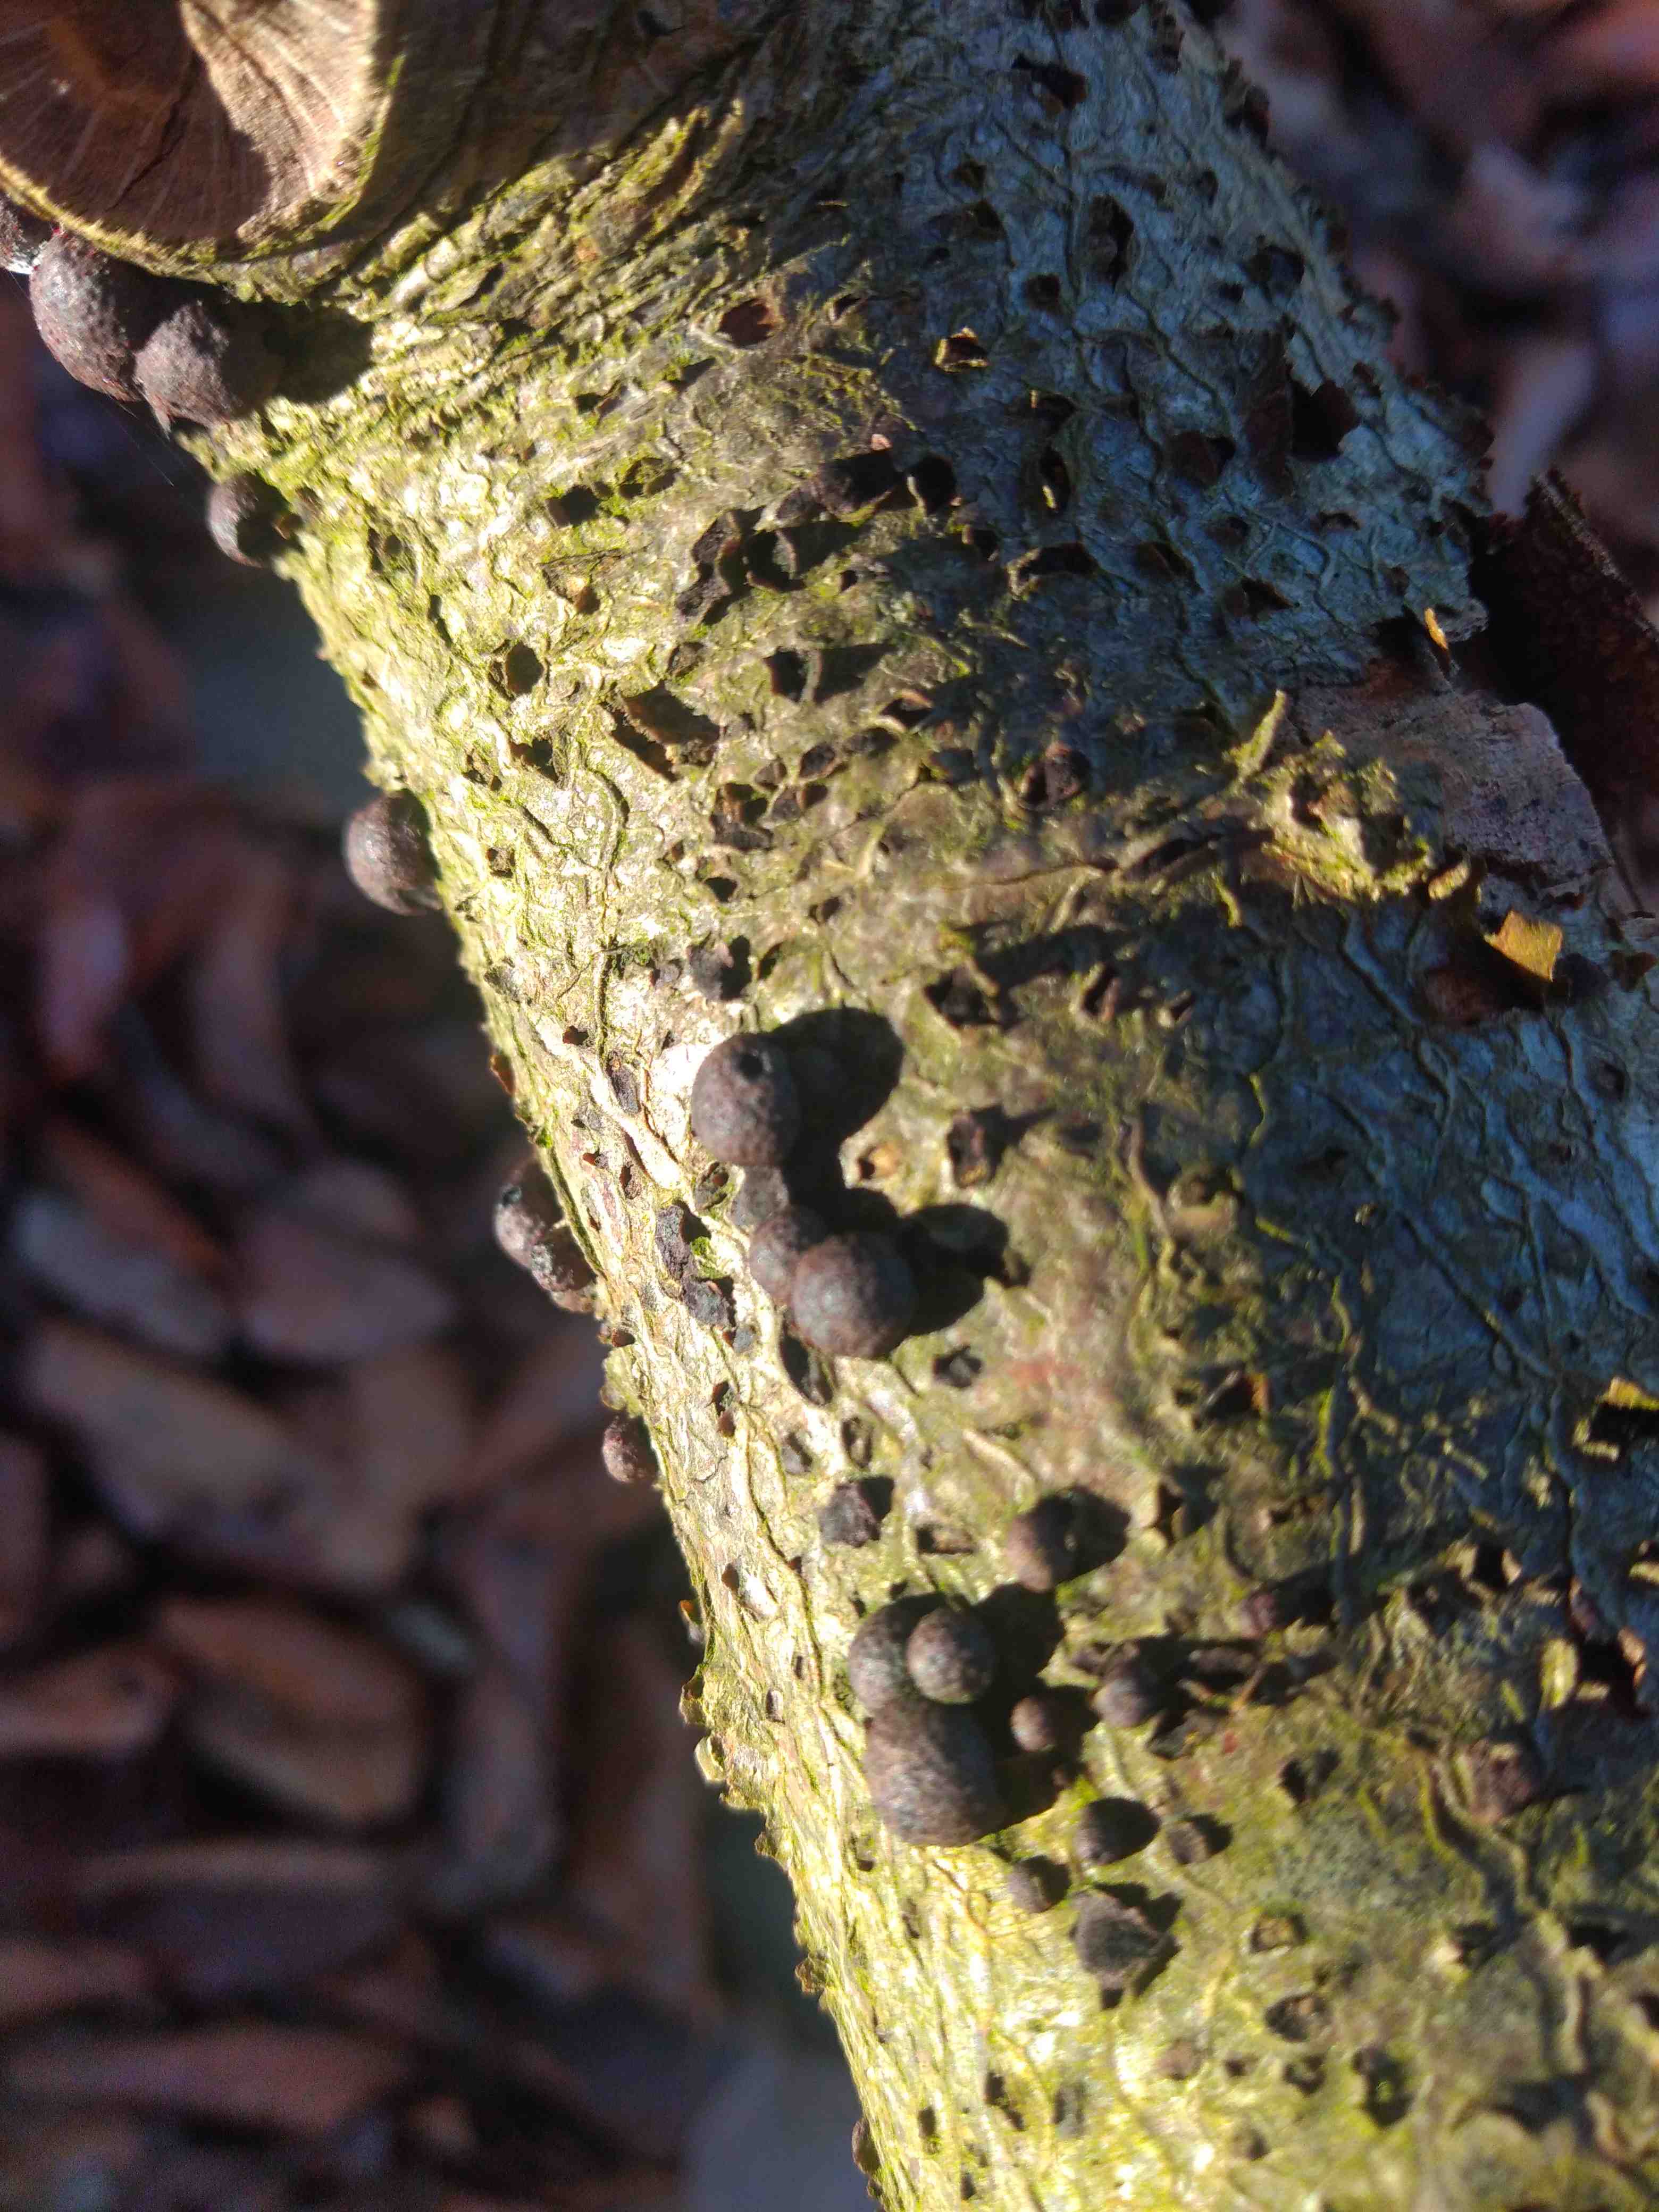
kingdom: Fungi
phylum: Ascomycota
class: Sordariomycetes
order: Xylariales
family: Hypoxylaceae
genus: Hypoxylon
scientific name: Hypoxylon howeanum
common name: halvkugleformet kulbær
